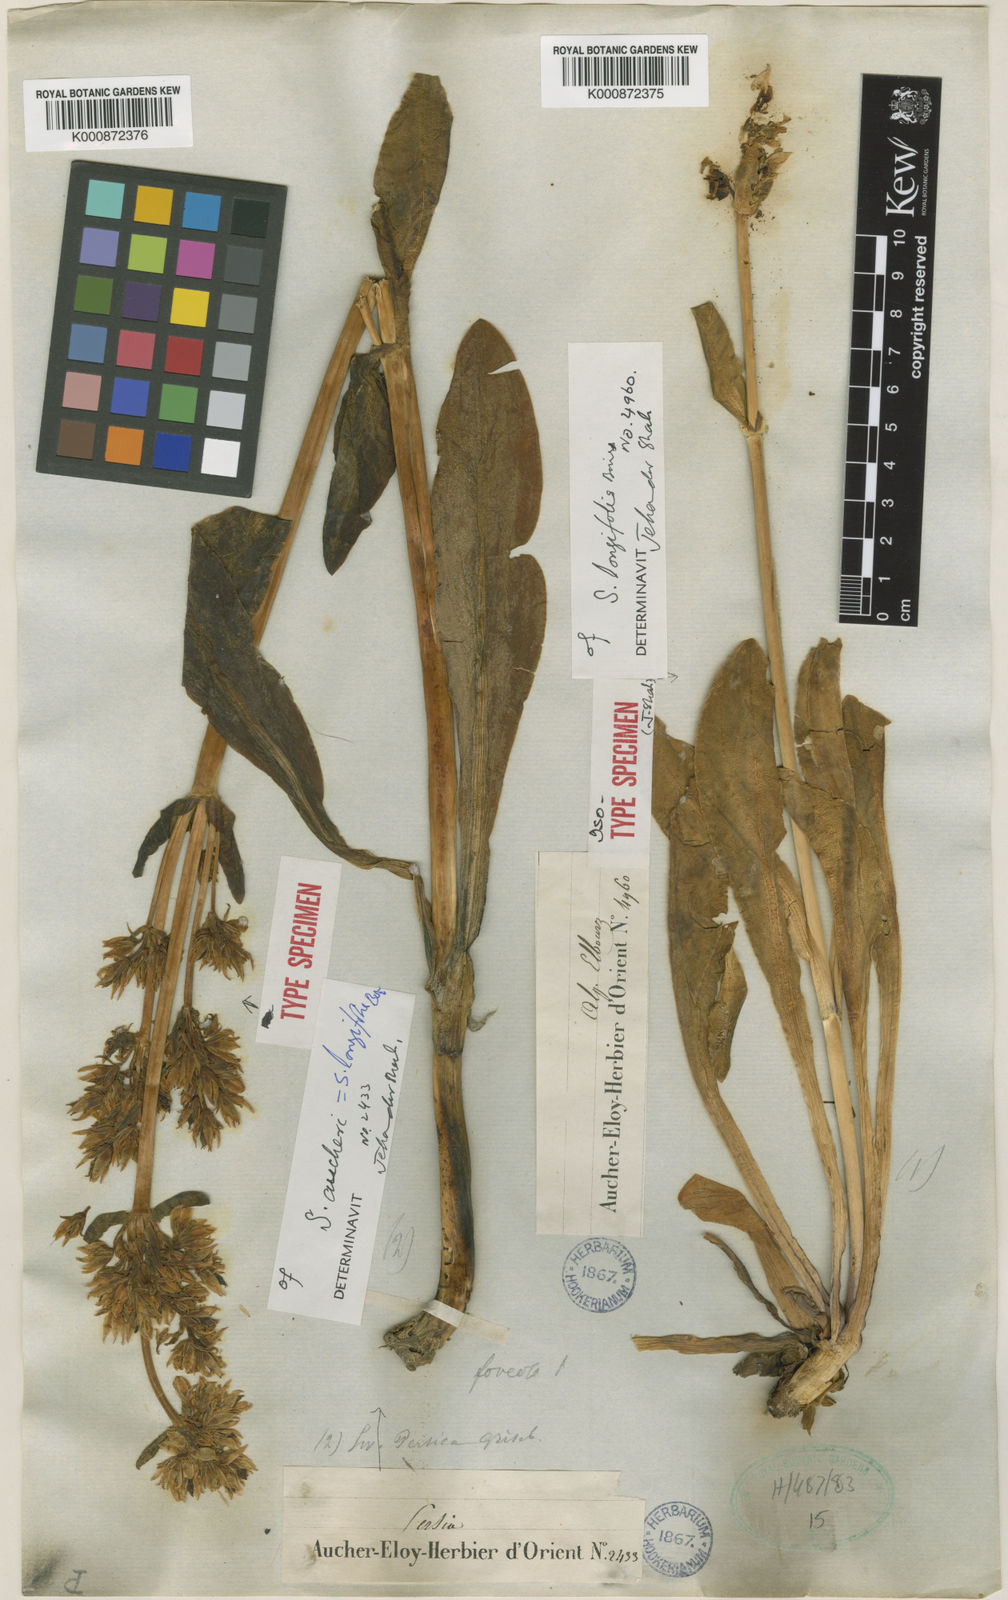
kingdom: Plantae
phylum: Tracheophyta
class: Magnoliopsida
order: Gentianales
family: Gentianaceae
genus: Swertia
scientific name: Swertia longifolia
